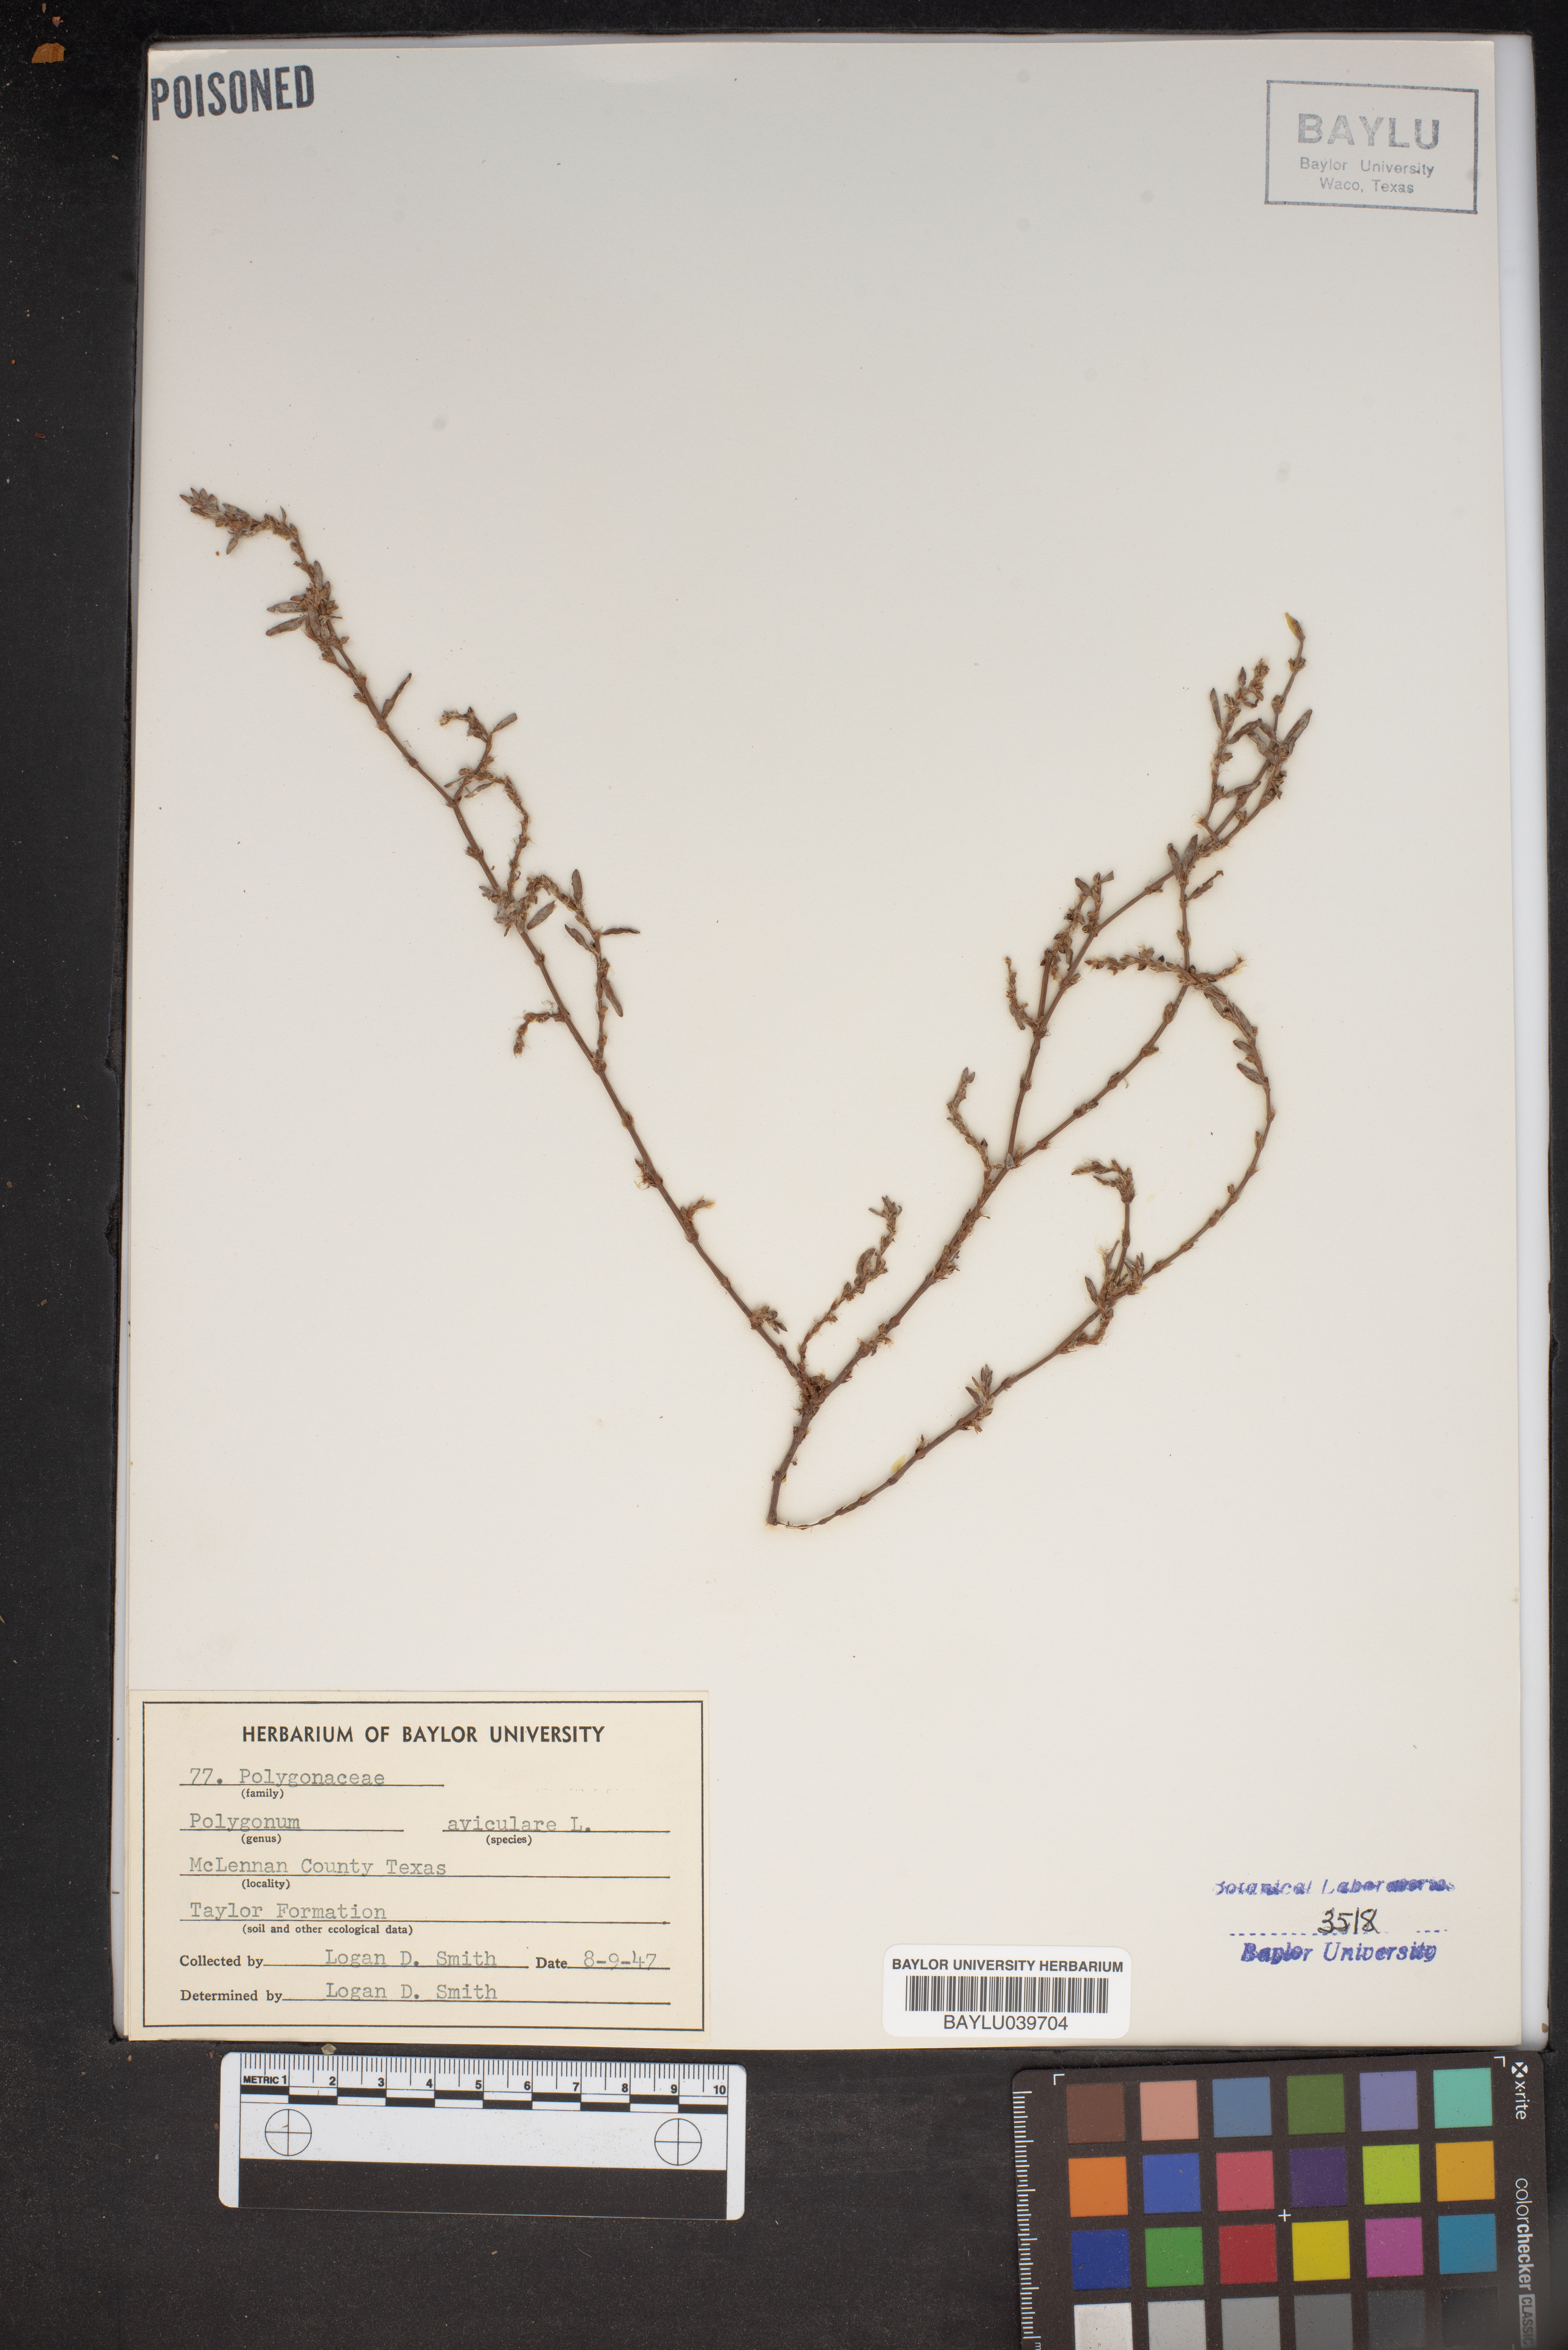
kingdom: Plantae
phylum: Tracheophyta
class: Magnoliopsida
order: Caryophyllales
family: Polygonaceae
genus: Polygonum
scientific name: Polygonum aviculare
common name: Prostrate knotweed
